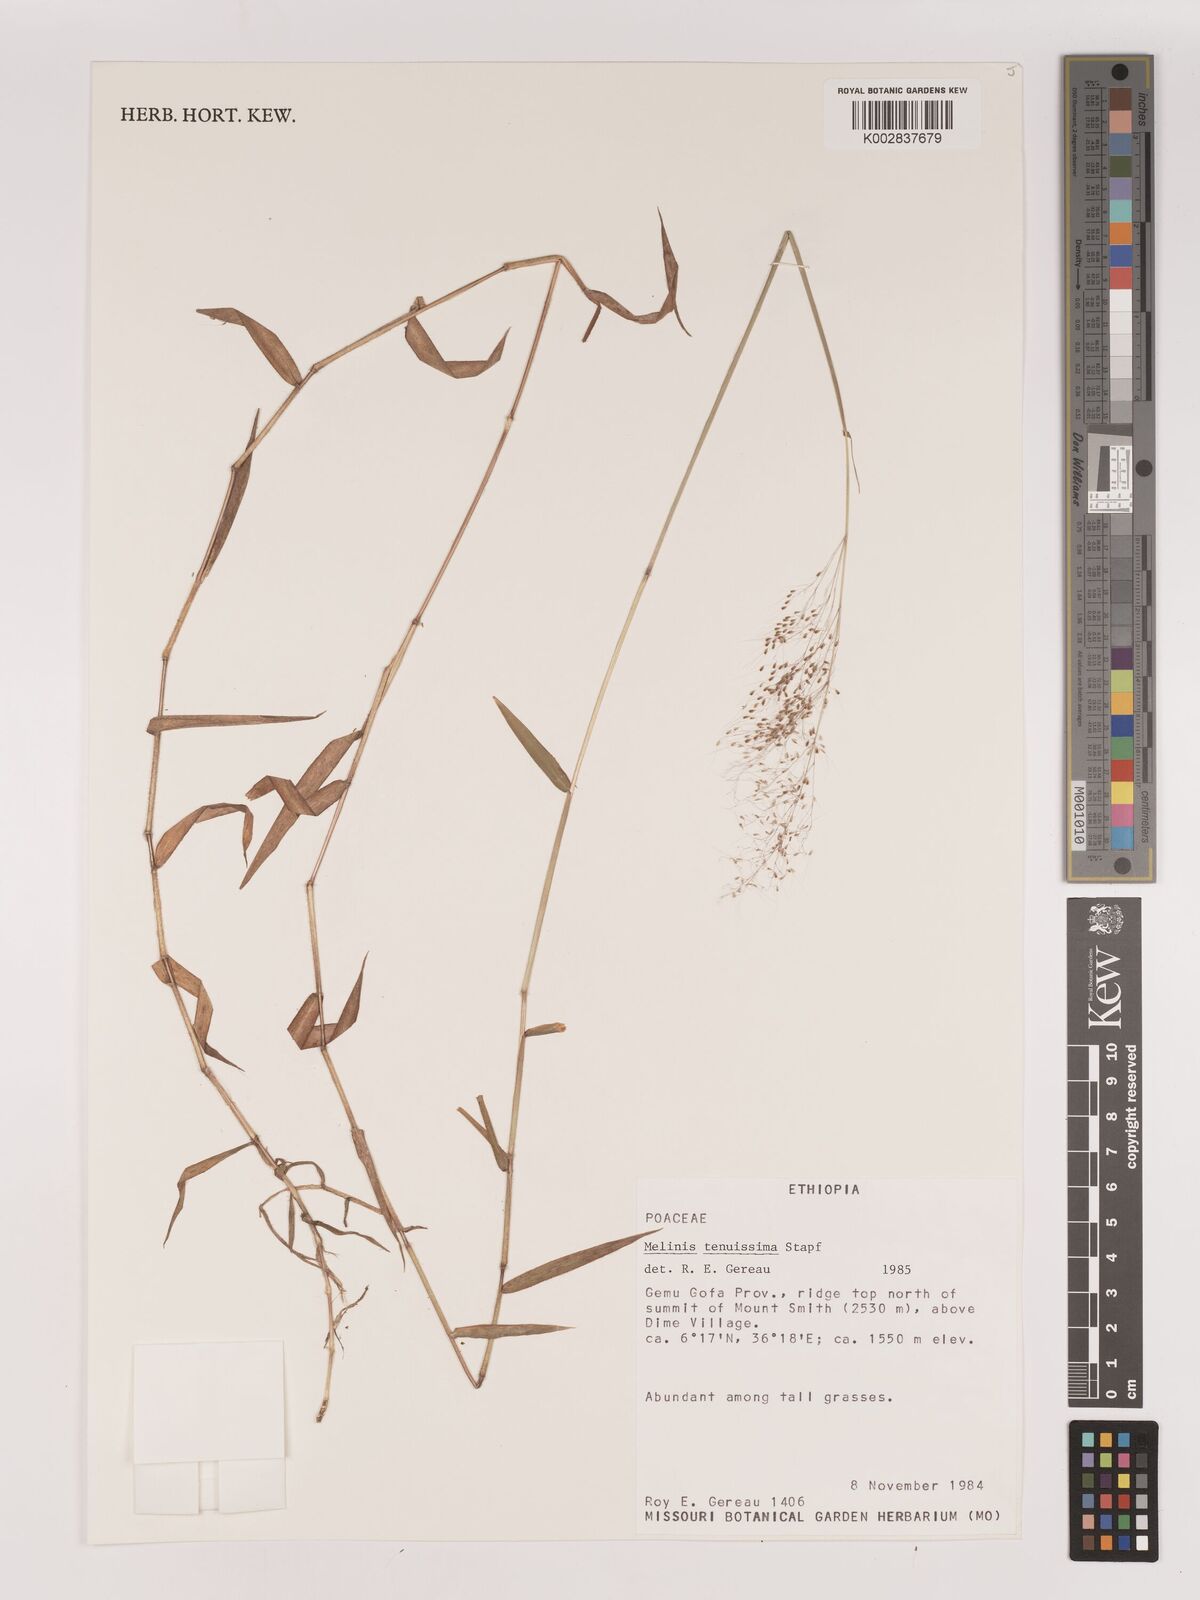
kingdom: Plantae
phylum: Tracheophyta
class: Liliopsida
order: Poales
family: Poaceae
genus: Melinis
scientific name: Melinis tenuissima
